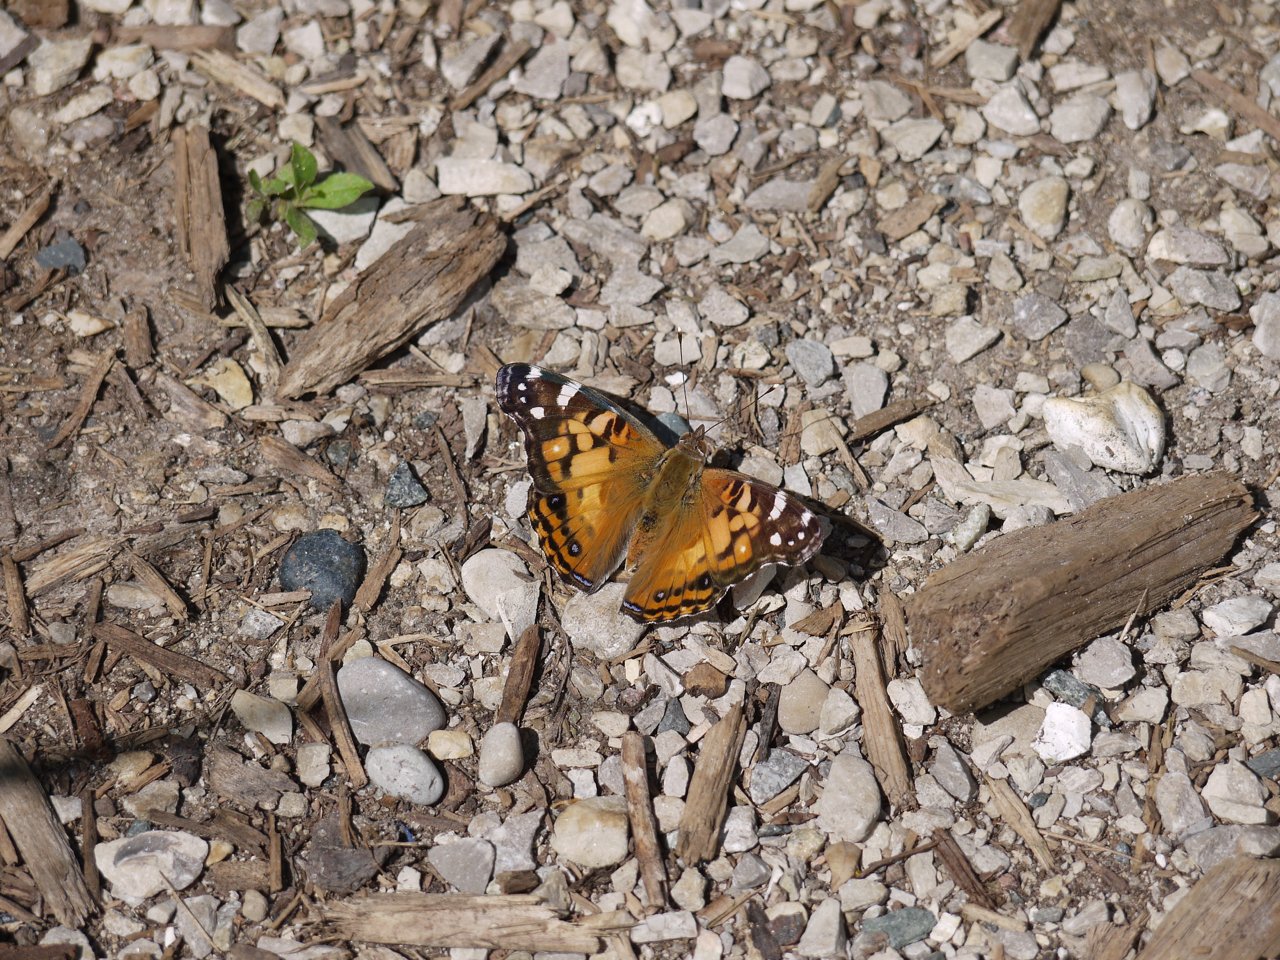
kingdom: Animalia
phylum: Arthropoda
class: Insecta
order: Lepidoptera
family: Nymphalidae
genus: Vanessa
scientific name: Vanessa virginiensis
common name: American Lady
